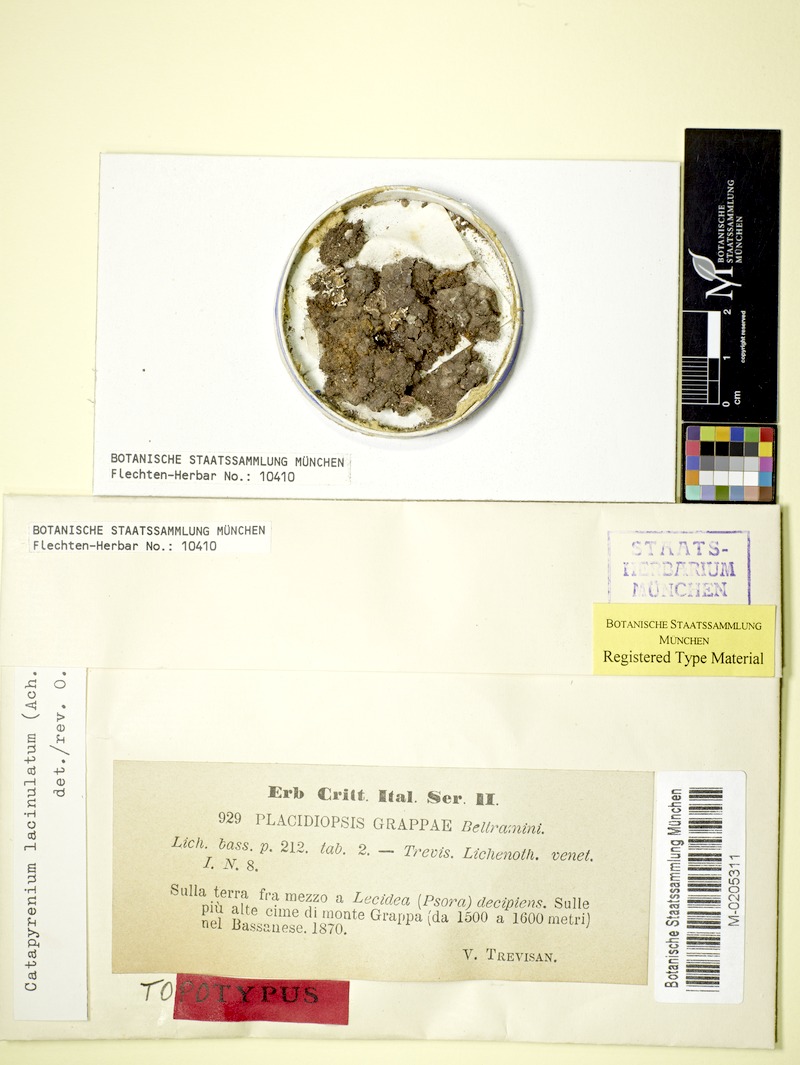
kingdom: Fungi
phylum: Ascomycota
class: Eurotiomycetes
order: Verrucariales
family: Verrucariaceae
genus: Clavascidium
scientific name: Clavascidium lacinulatum
